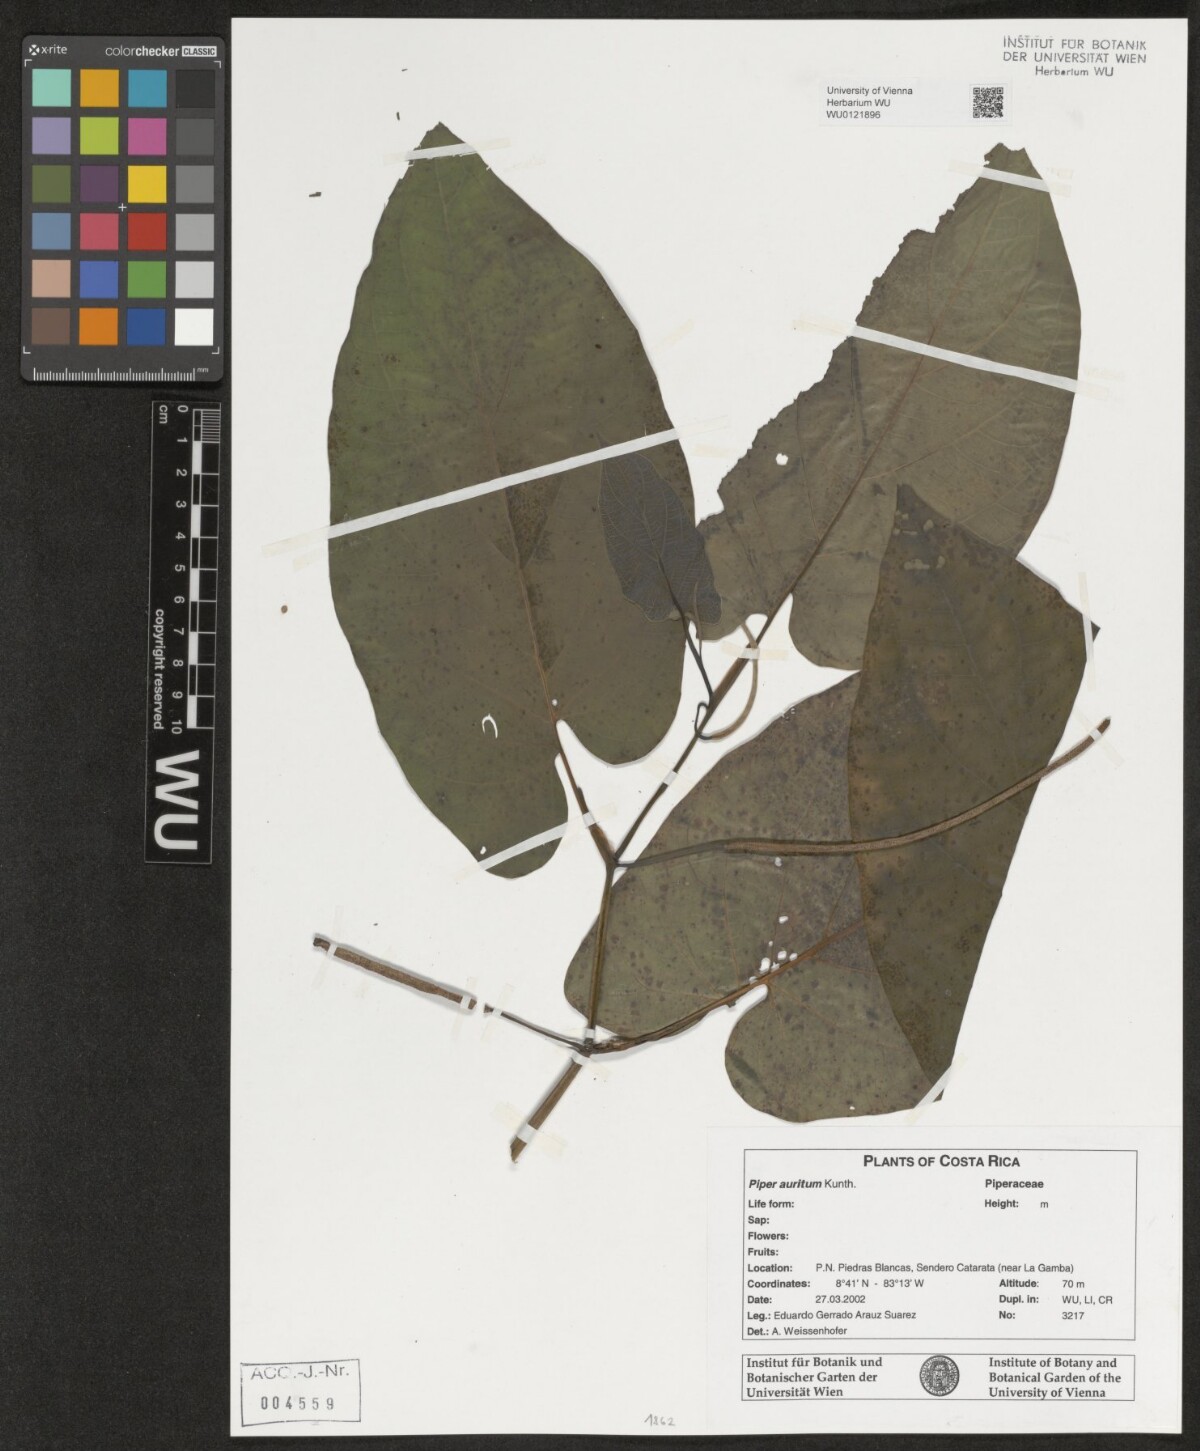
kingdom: Plantae
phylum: Tracheophyta
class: Magnoliopsida
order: Piperales
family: Piperaceae
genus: Piper
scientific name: Piper auritum
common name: Vera cruz pepper
